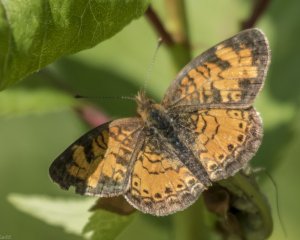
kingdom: Animalia
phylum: Arthropoda
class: Insecta
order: Lepidoptera
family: Nymphalidae
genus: Phyciodes
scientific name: Phyciodes tharos
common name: Northern Crescent
